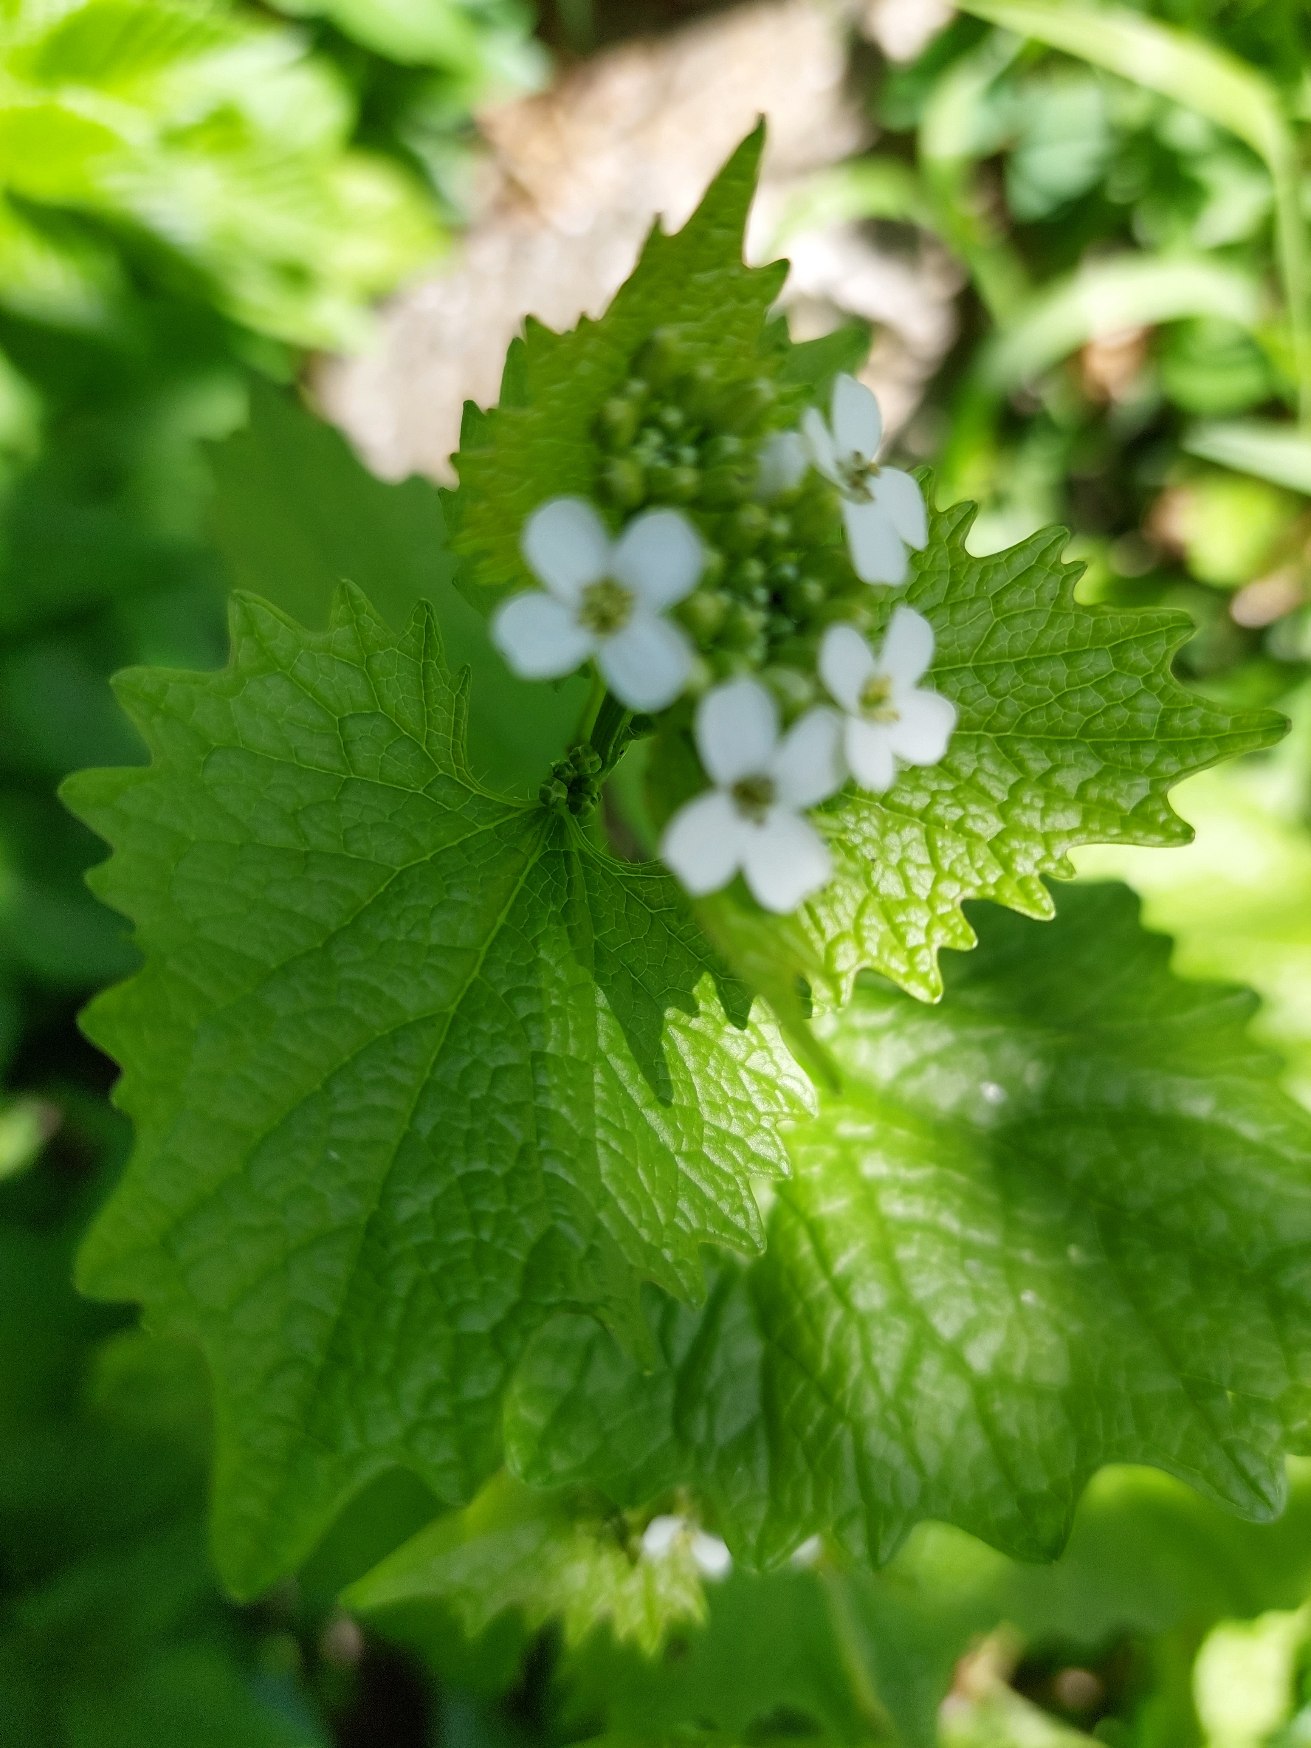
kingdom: Plantae
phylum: Tracheophyta
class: Magnoliopsida
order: Brassicales
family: Brassicaceae
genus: Alliaria
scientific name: Alliaria petiolata
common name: Løgkarse
